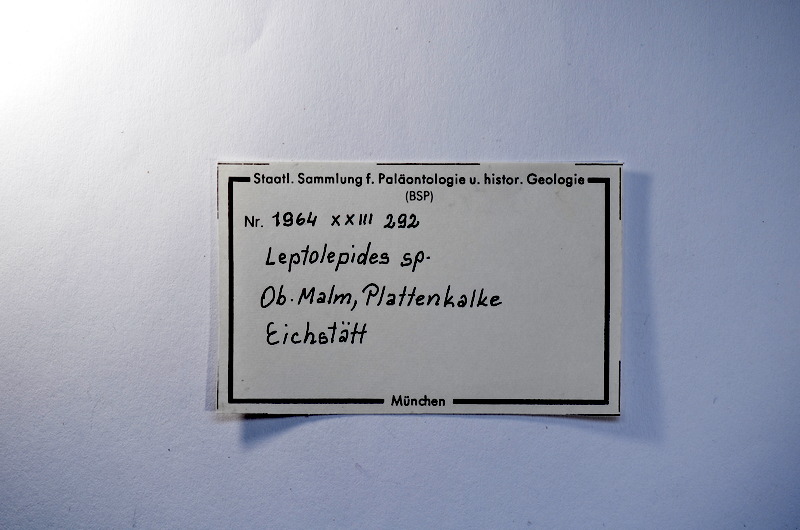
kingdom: Animalia
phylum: Chordata
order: Salmoniformes
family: Orthogonikleithridae
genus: Leptolepides
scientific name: Leptolepides
